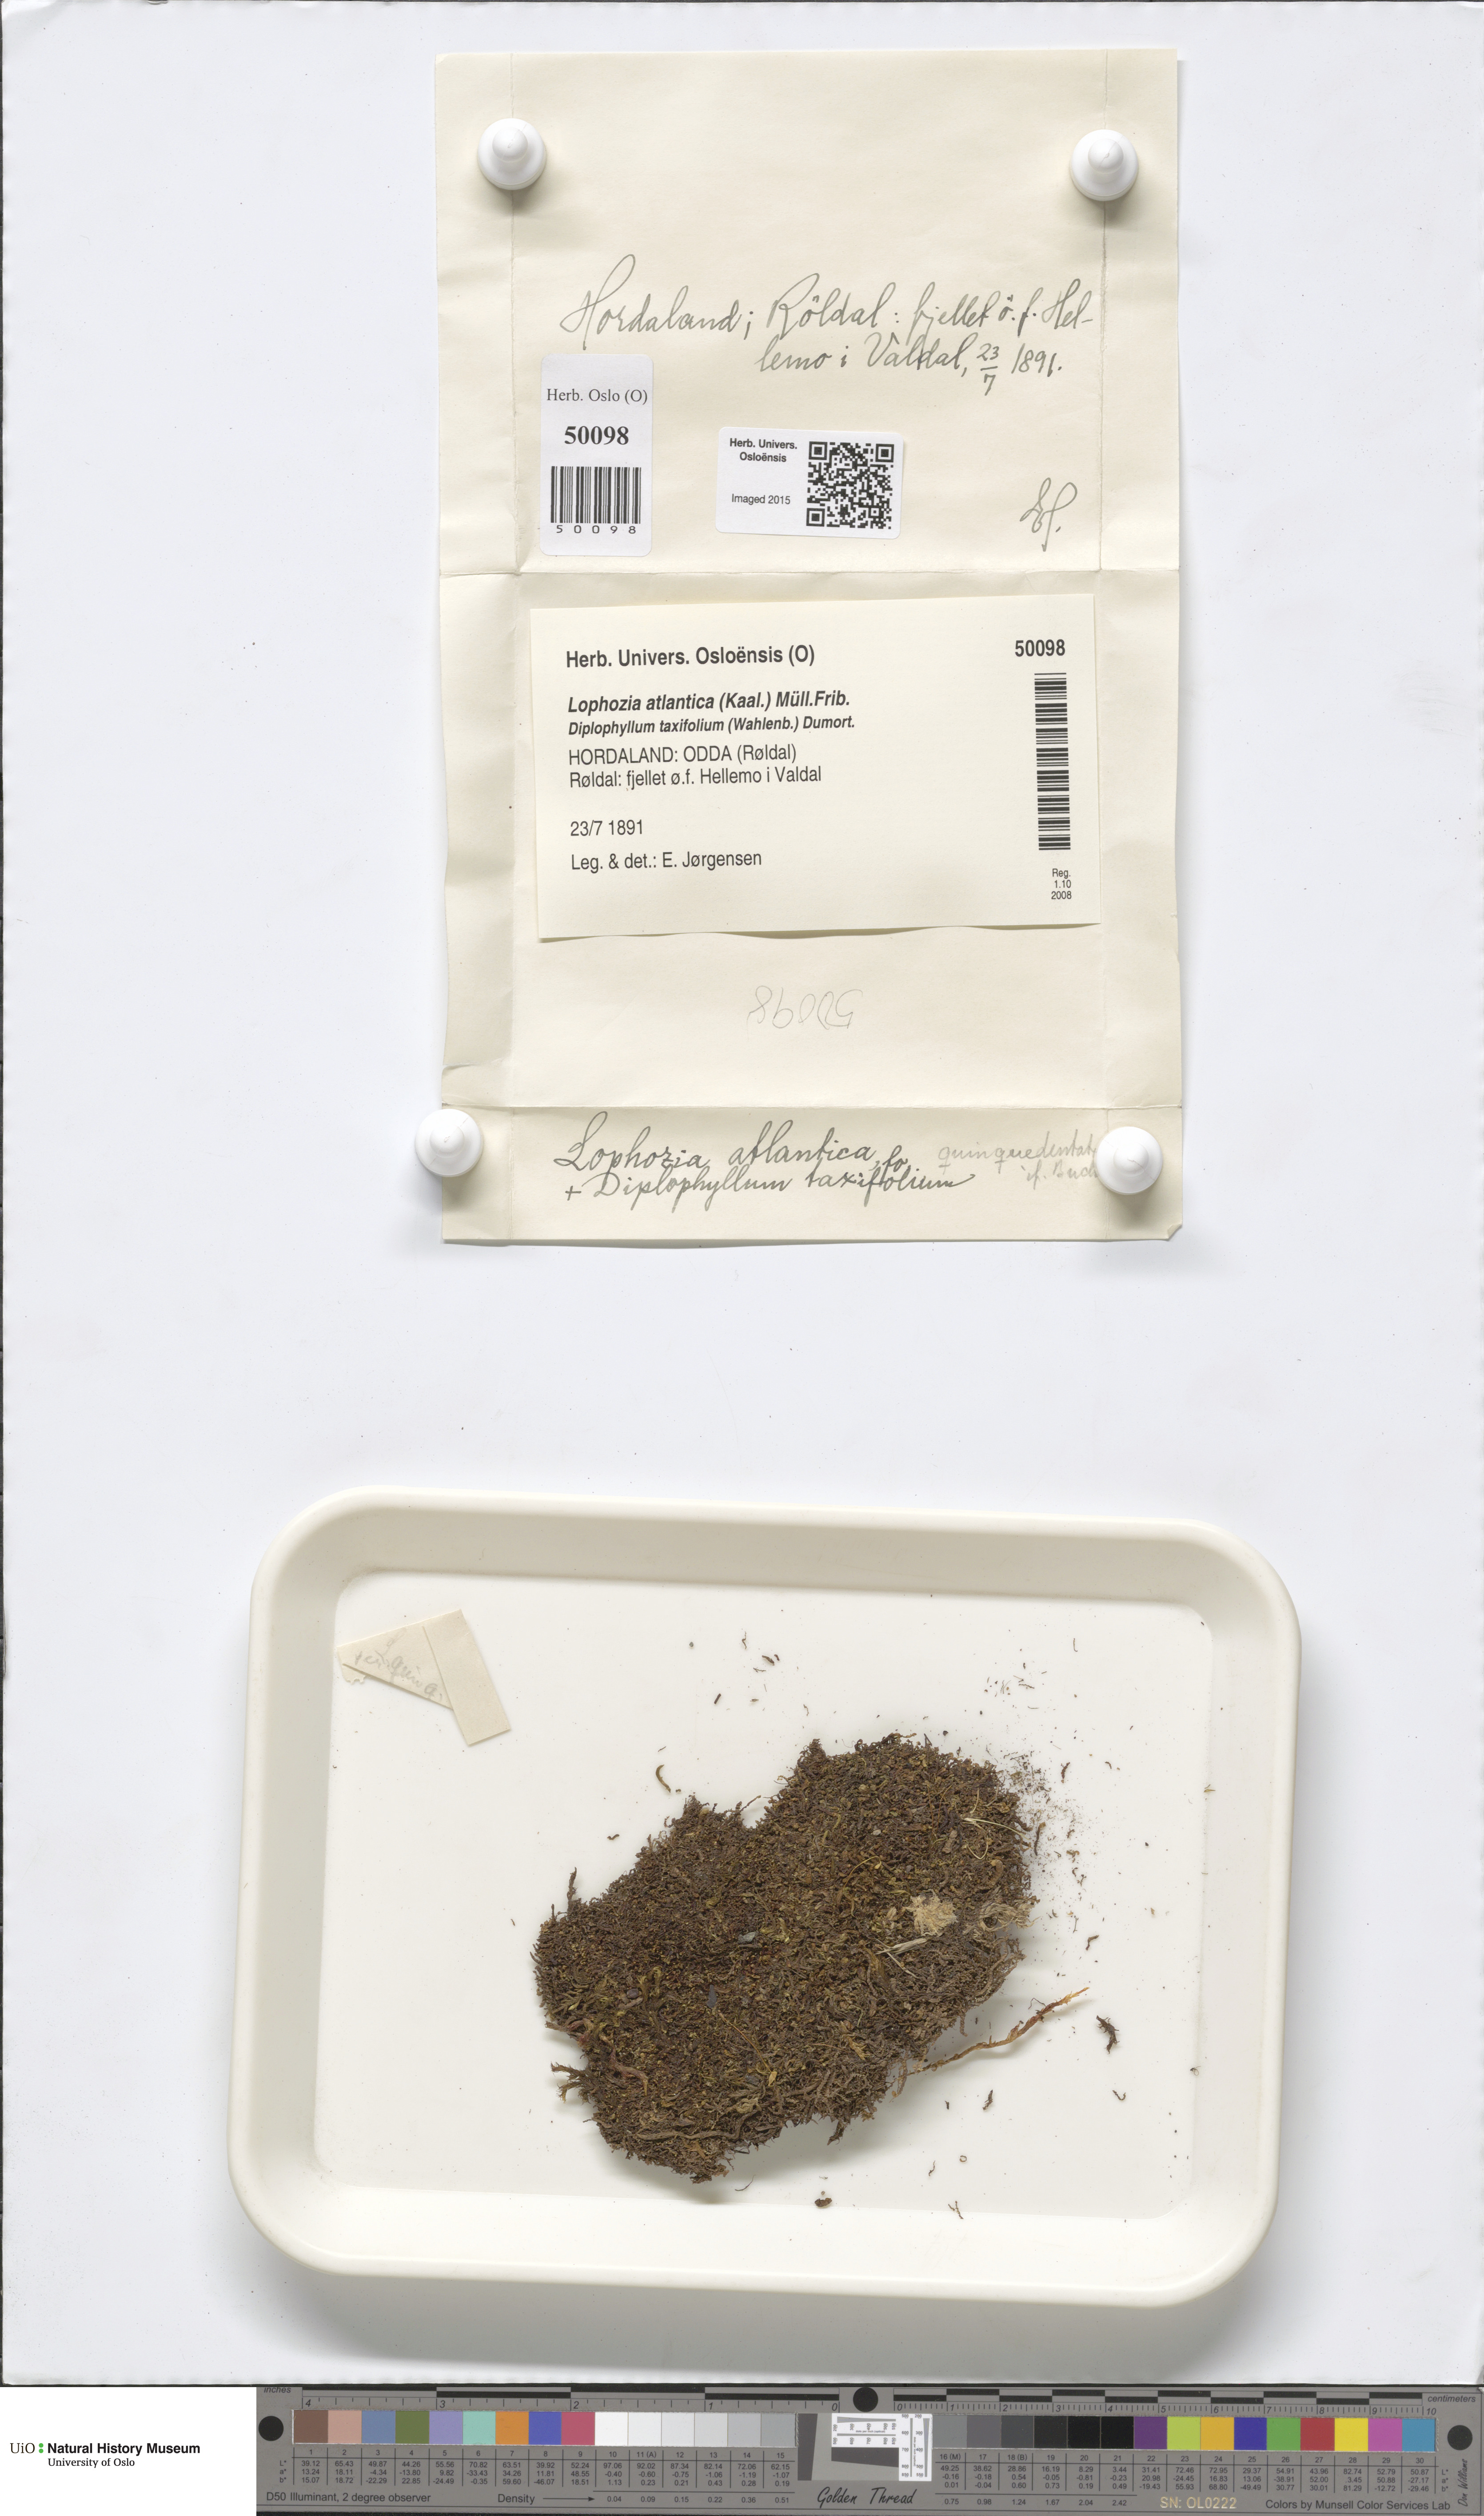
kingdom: Plantae
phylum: Marchantiophyta
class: Jungermanniopsida
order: Jungermanniales
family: Anastrophyllaceae
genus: Orthocaulis
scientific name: Orthocaulis atlanticus
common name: Atlantic pawwort
